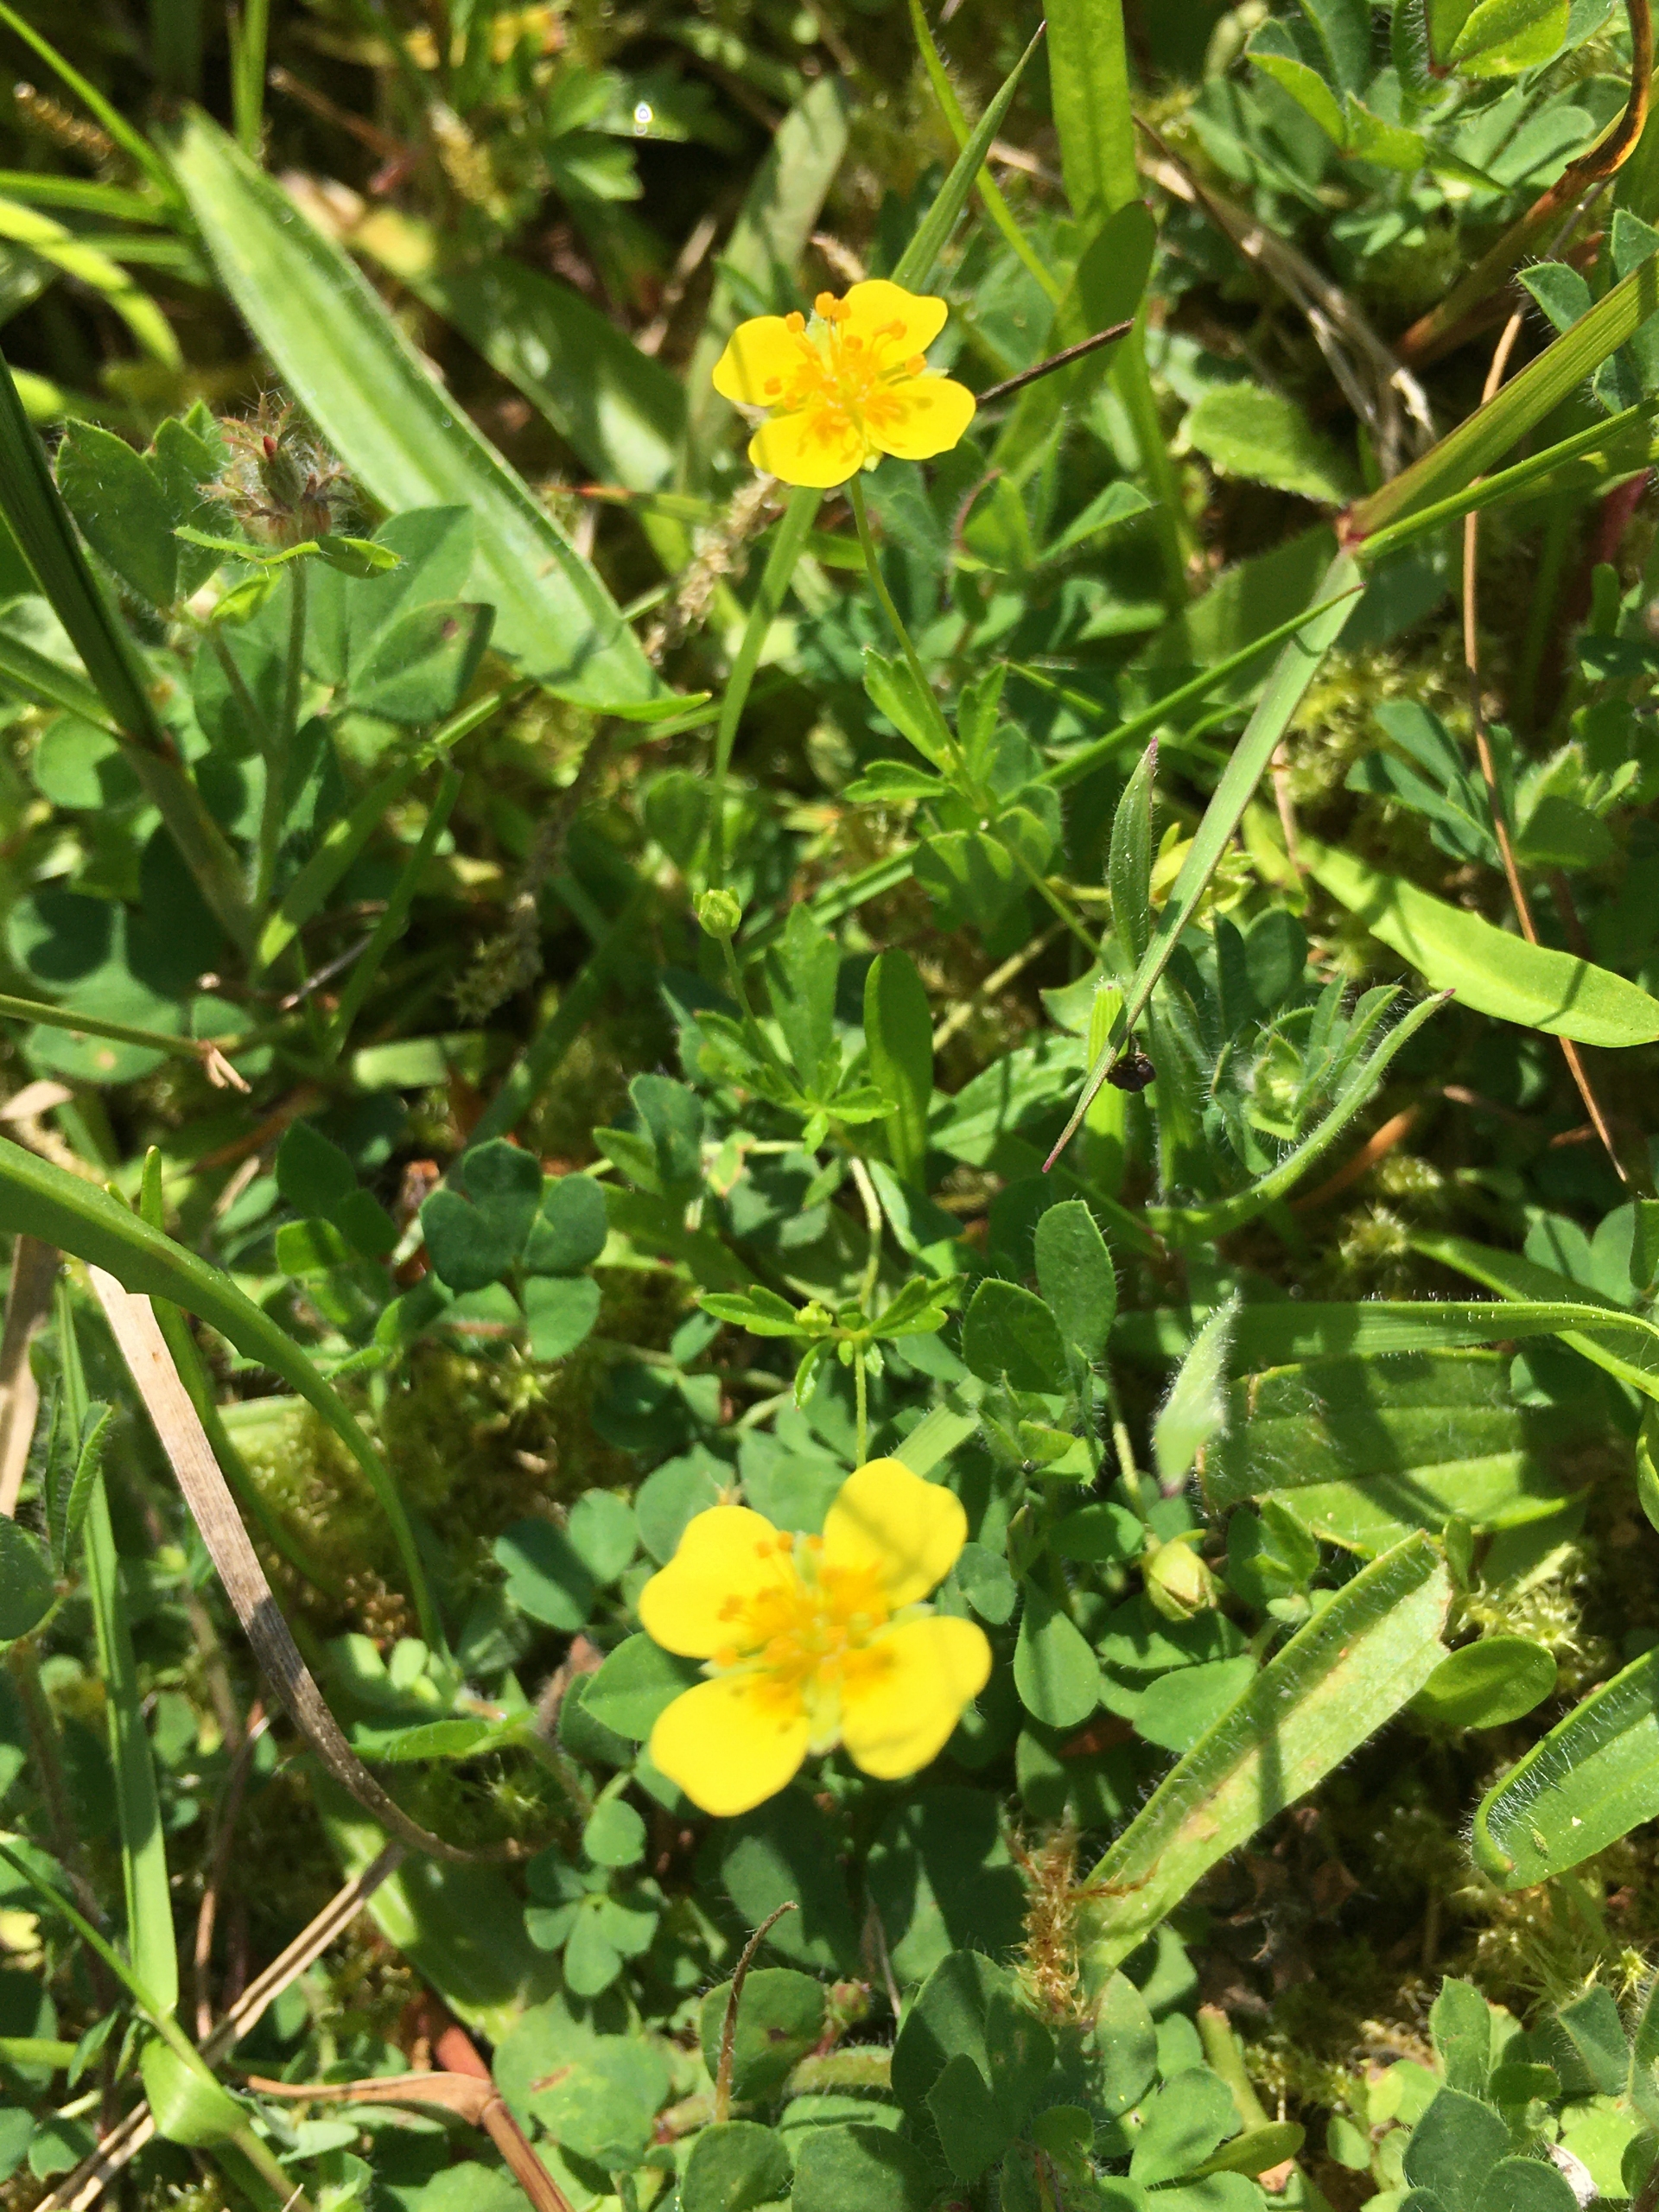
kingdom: Plantae
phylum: Tracheophyta
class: Magnoliopsida
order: Rosales
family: Rosaceae
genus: Potentilla
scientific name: Potentilla erecta
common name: Tormentil
